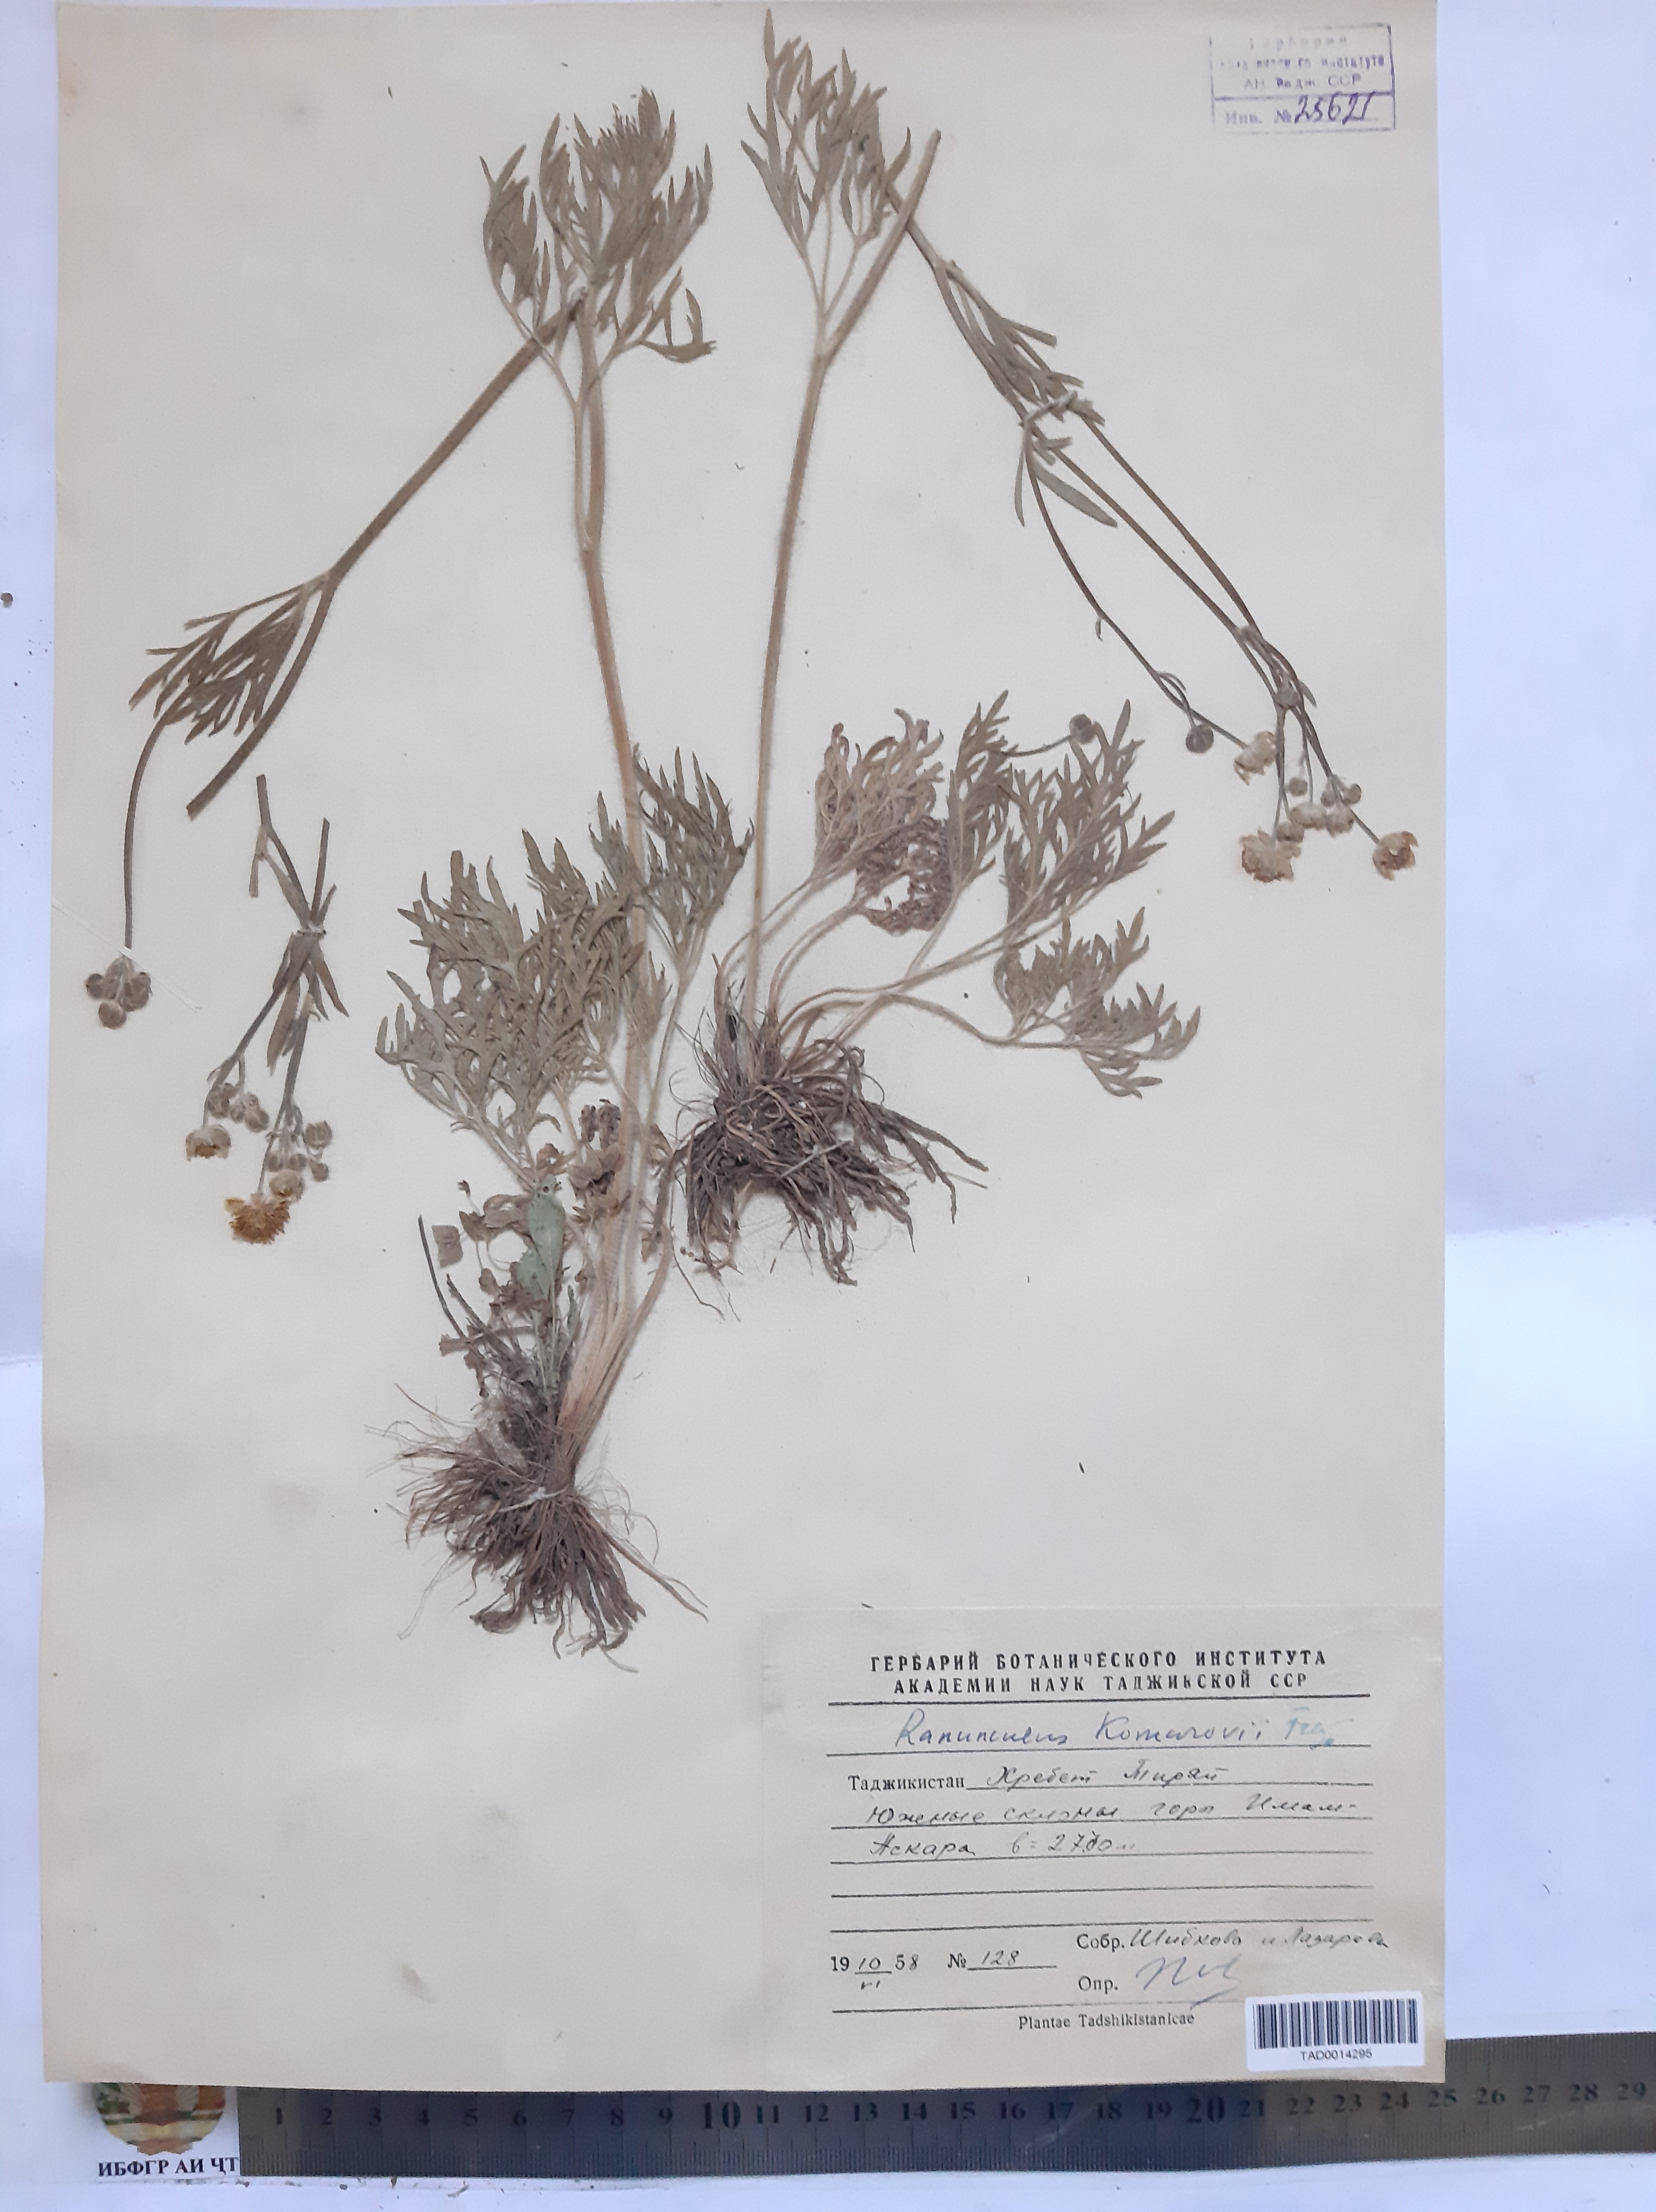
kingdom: Plantae
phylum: Tracheophyta
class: Magnoliopsida
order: Ranunculales
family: Ranunculaceae
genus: Ranunculus
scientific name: Ranunculus komarovii
